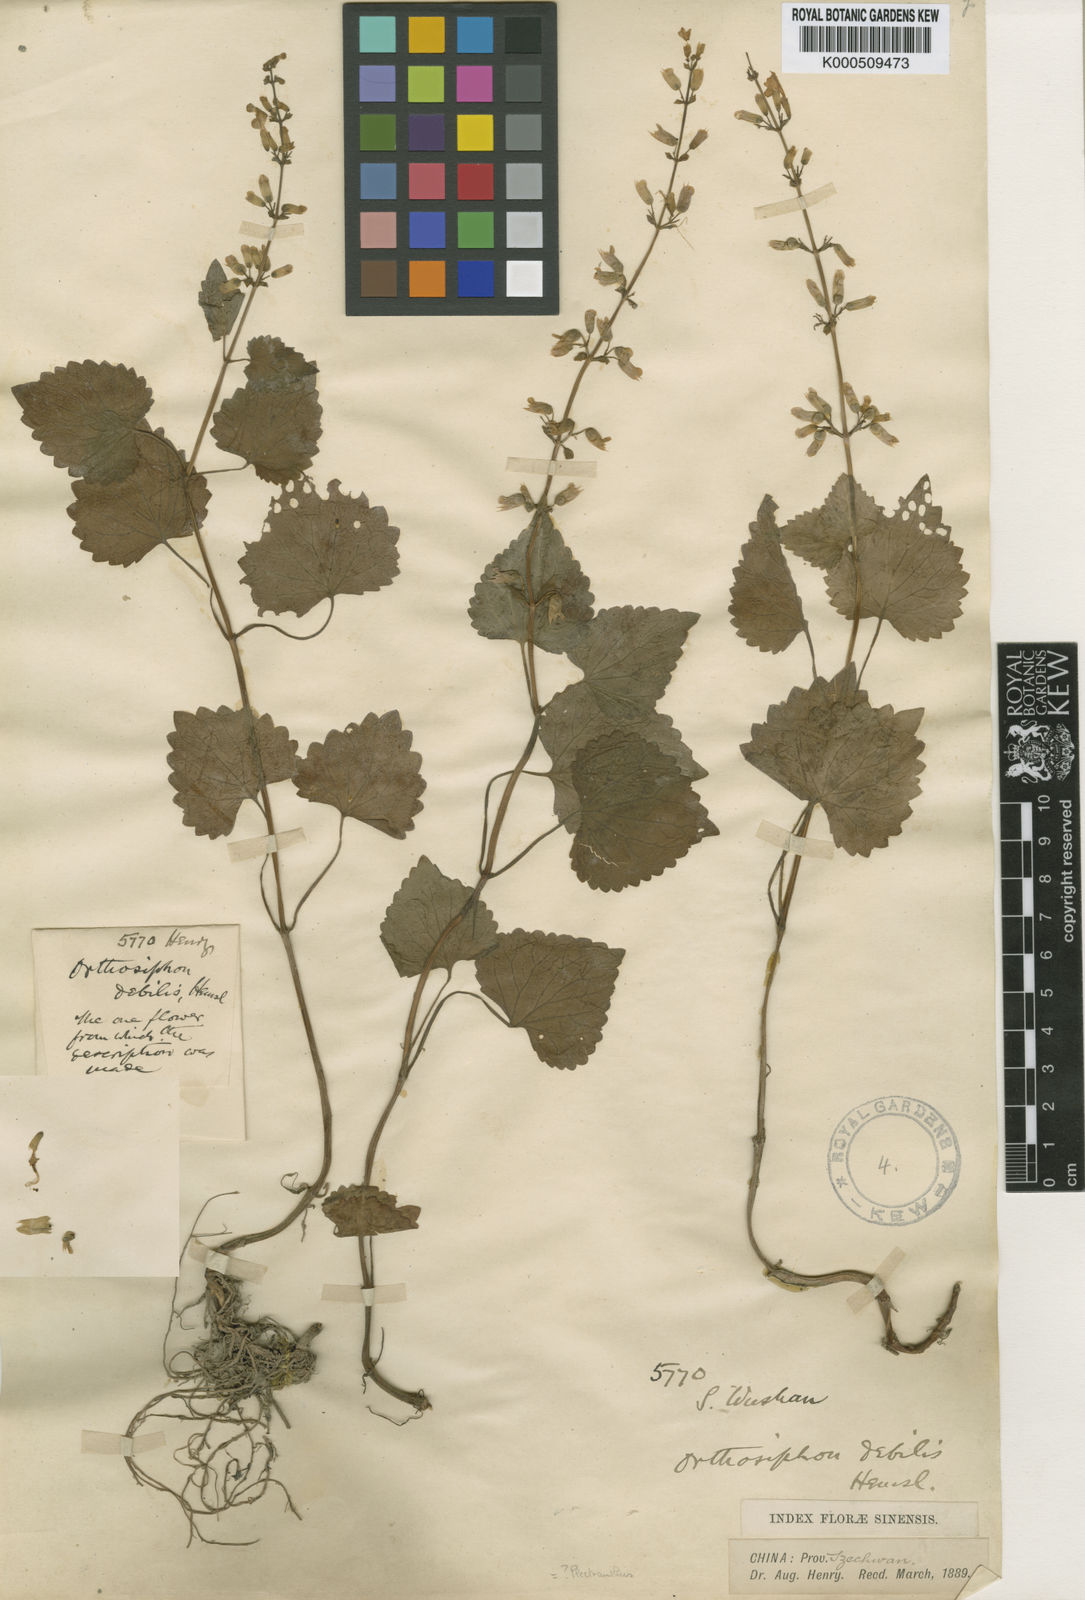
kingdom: Plantae
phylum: Tracheophyta
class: Magnoliopsida
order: Lamiales
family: Lamiaceae
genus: Heterolamium
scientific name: Heterolamium debile
